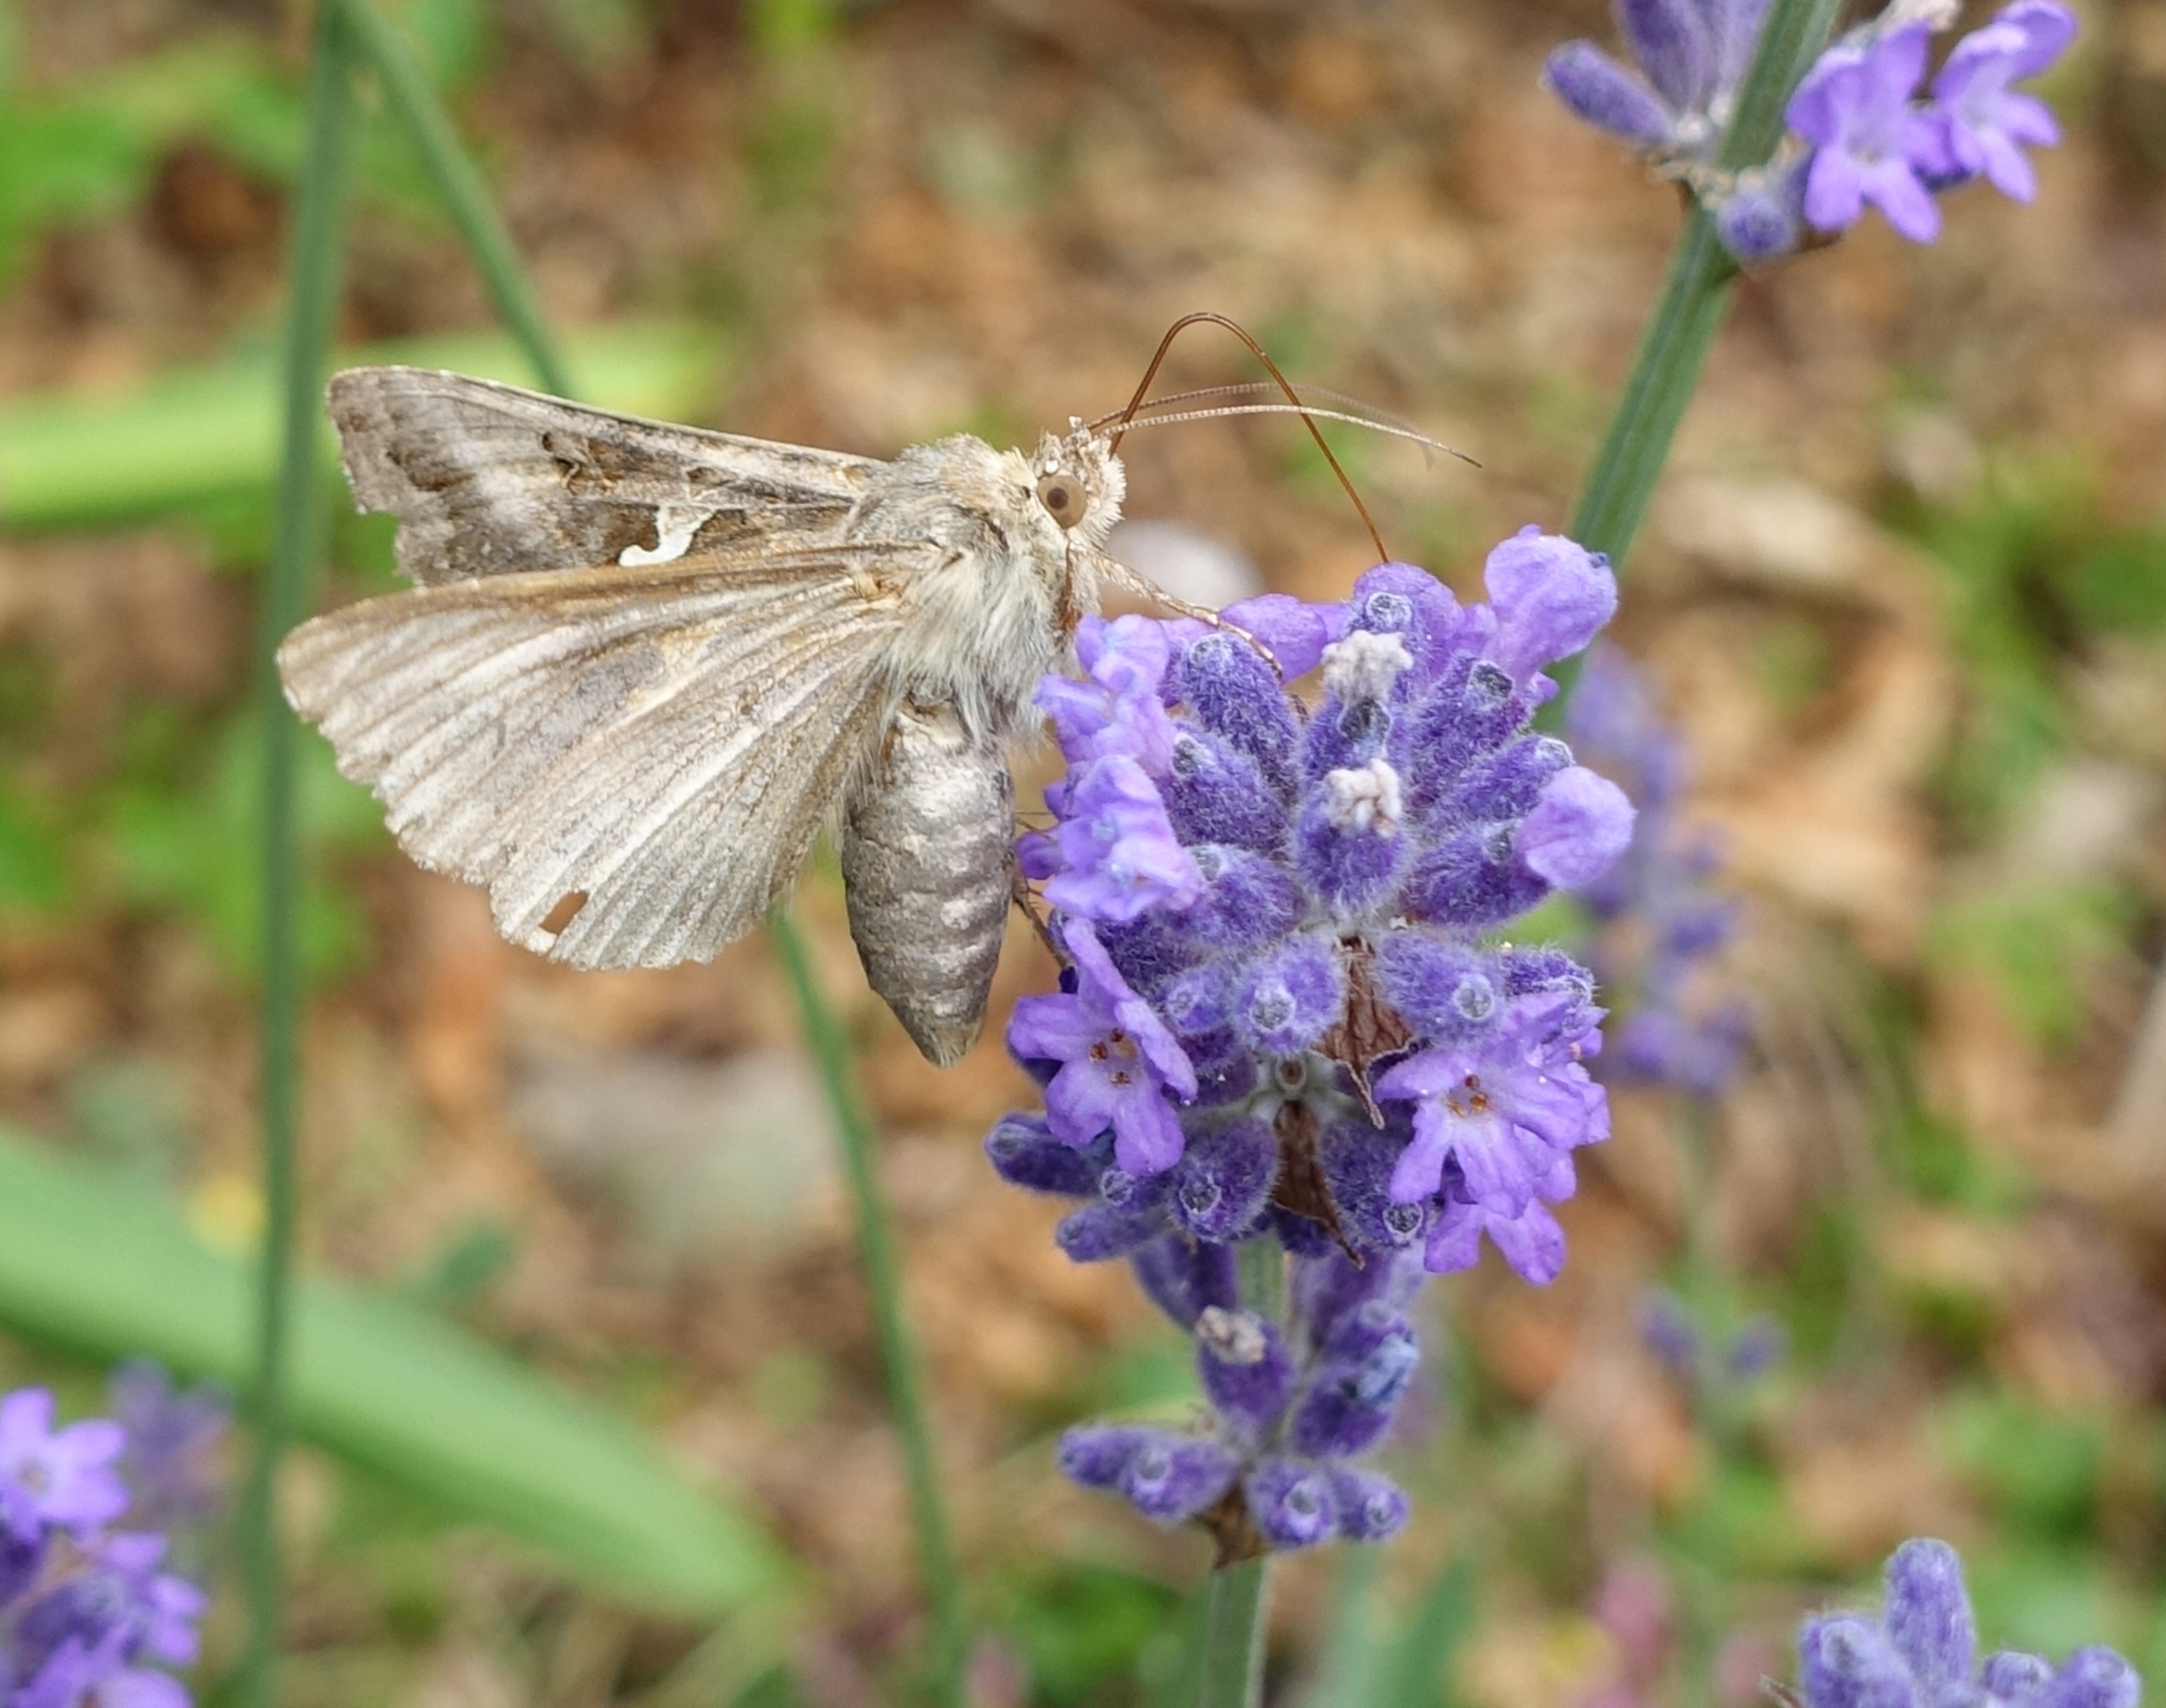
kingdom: Animalia
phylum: Arthropoda
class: Insecta
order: Lepidoptera
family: Noctuidae
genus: Autographa
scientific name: Autographa gamma
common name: Gammaugle
